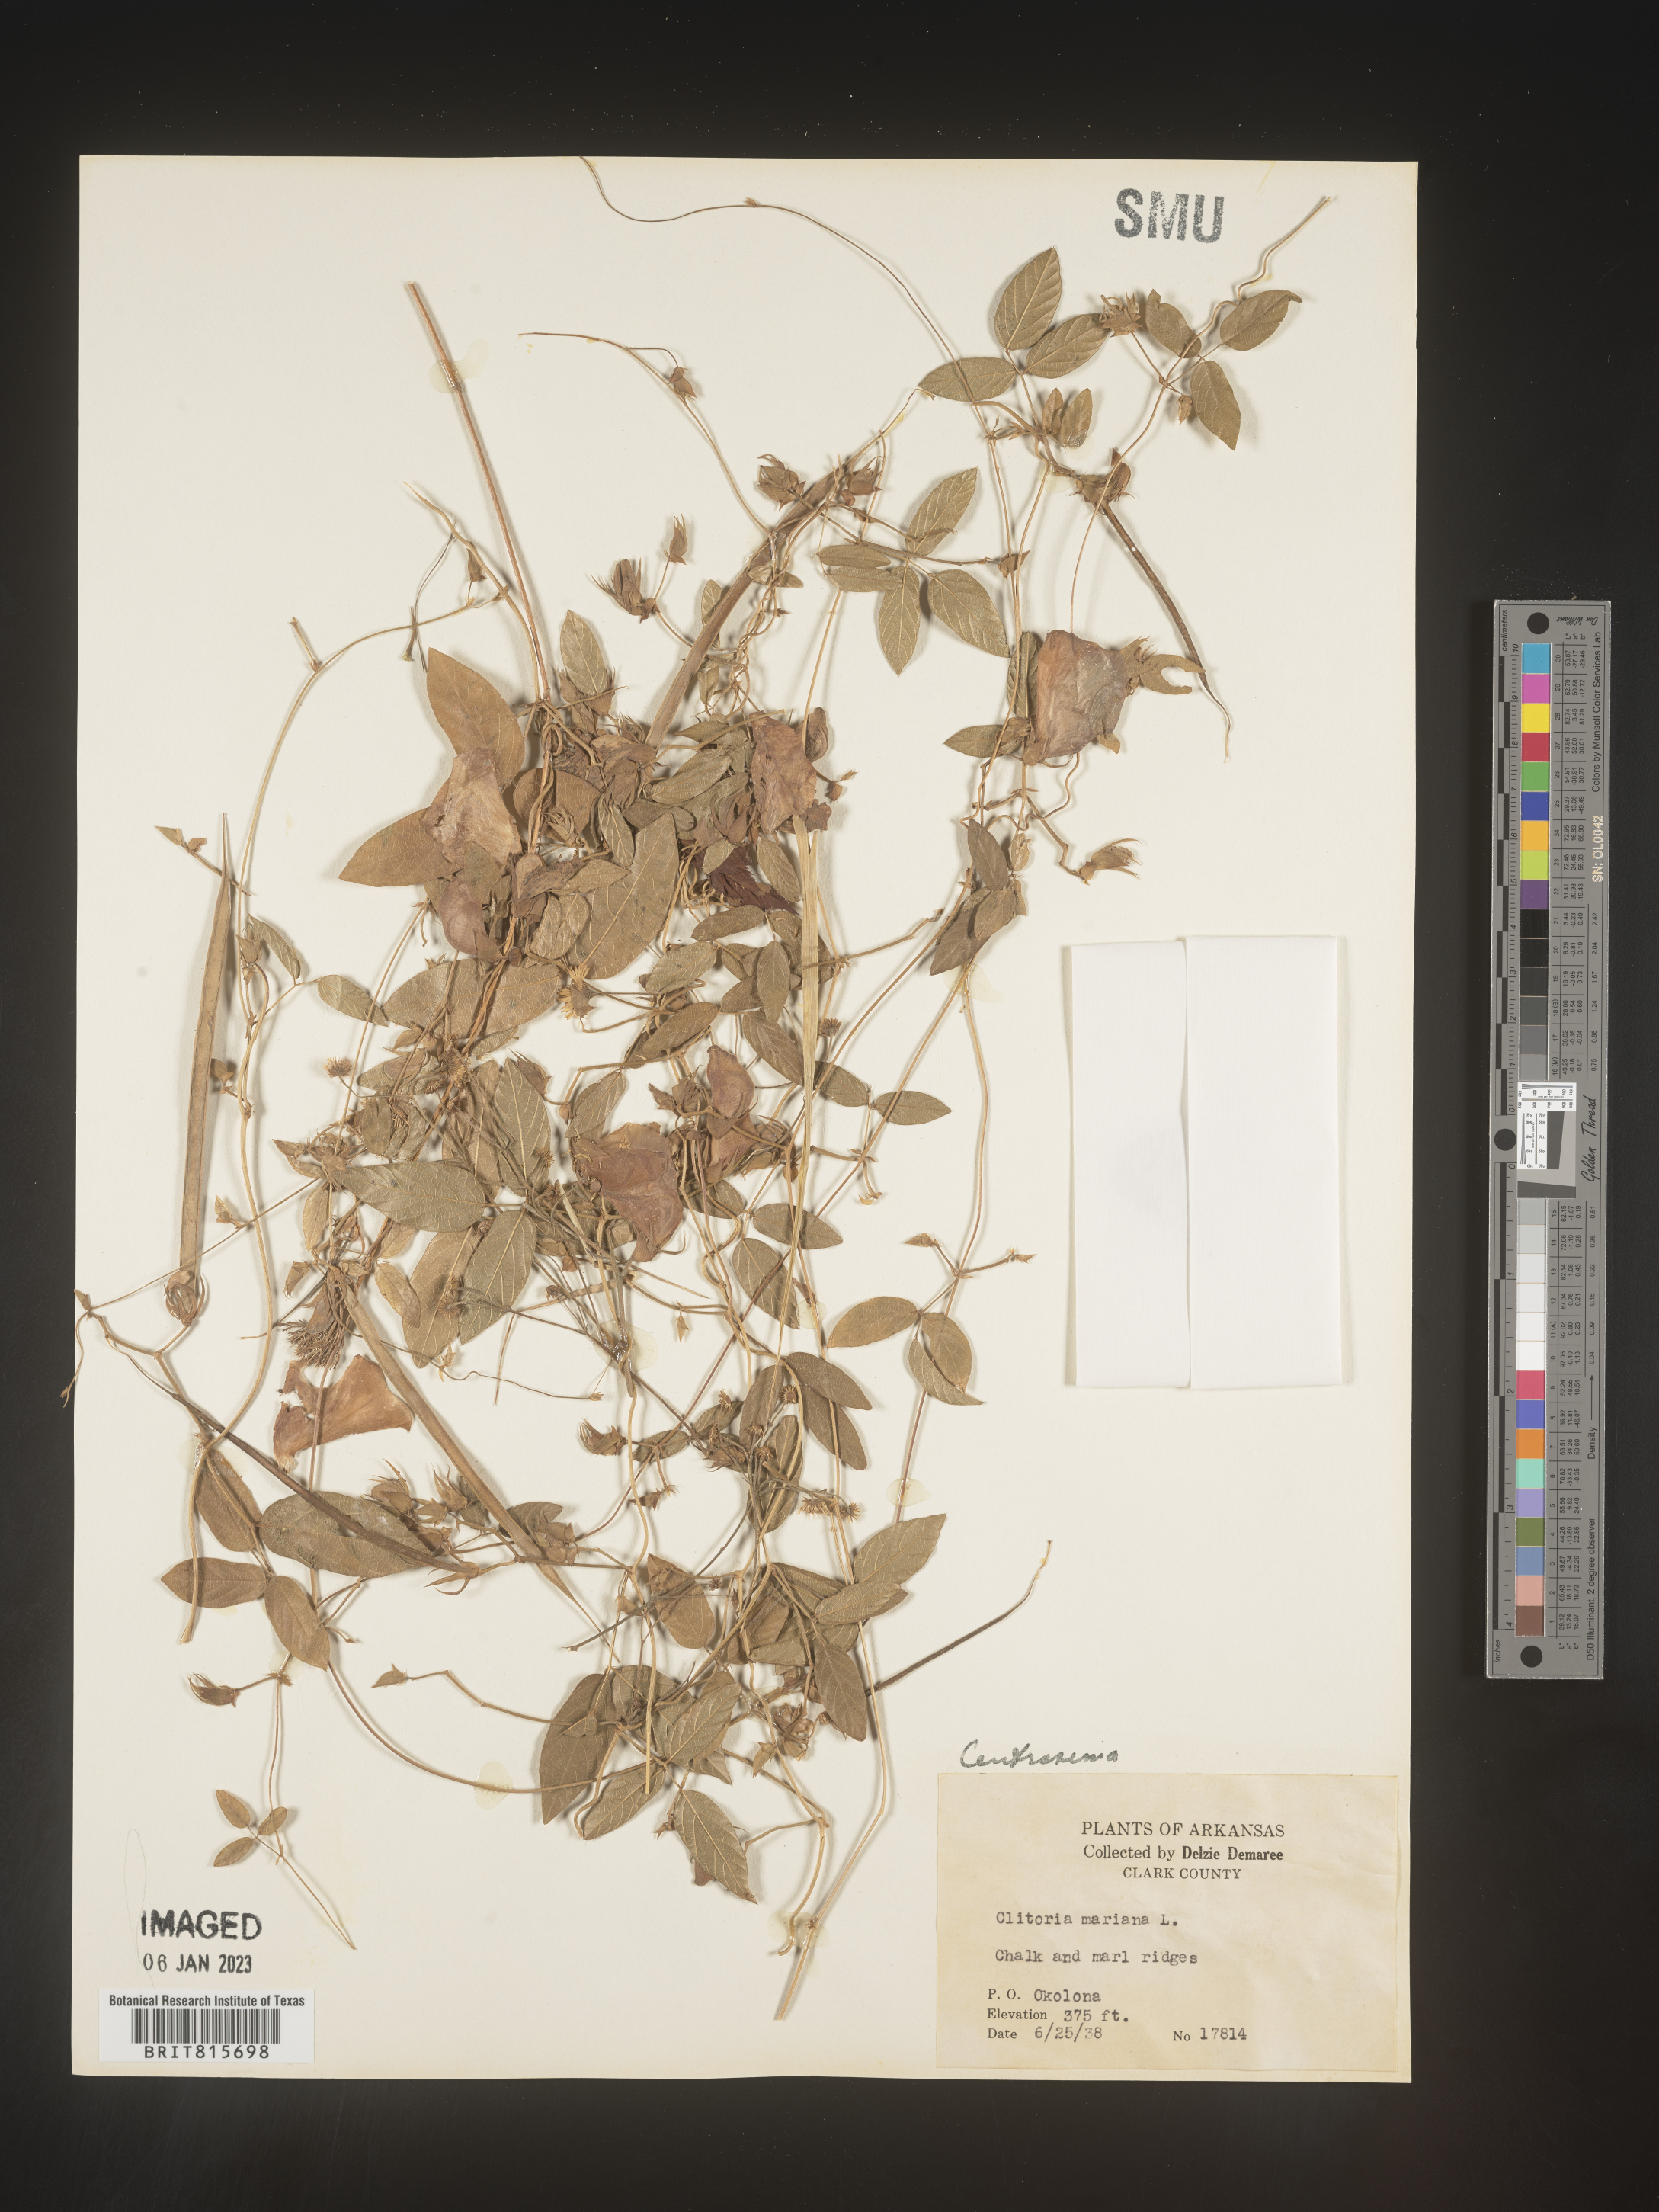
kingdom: Plantae
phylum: Tracheophyta
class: Magnoliopsida
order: Fabales
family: Fabaceae
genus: Centrosema
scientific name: Centrosema virginianum
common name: Butterfly-pea
